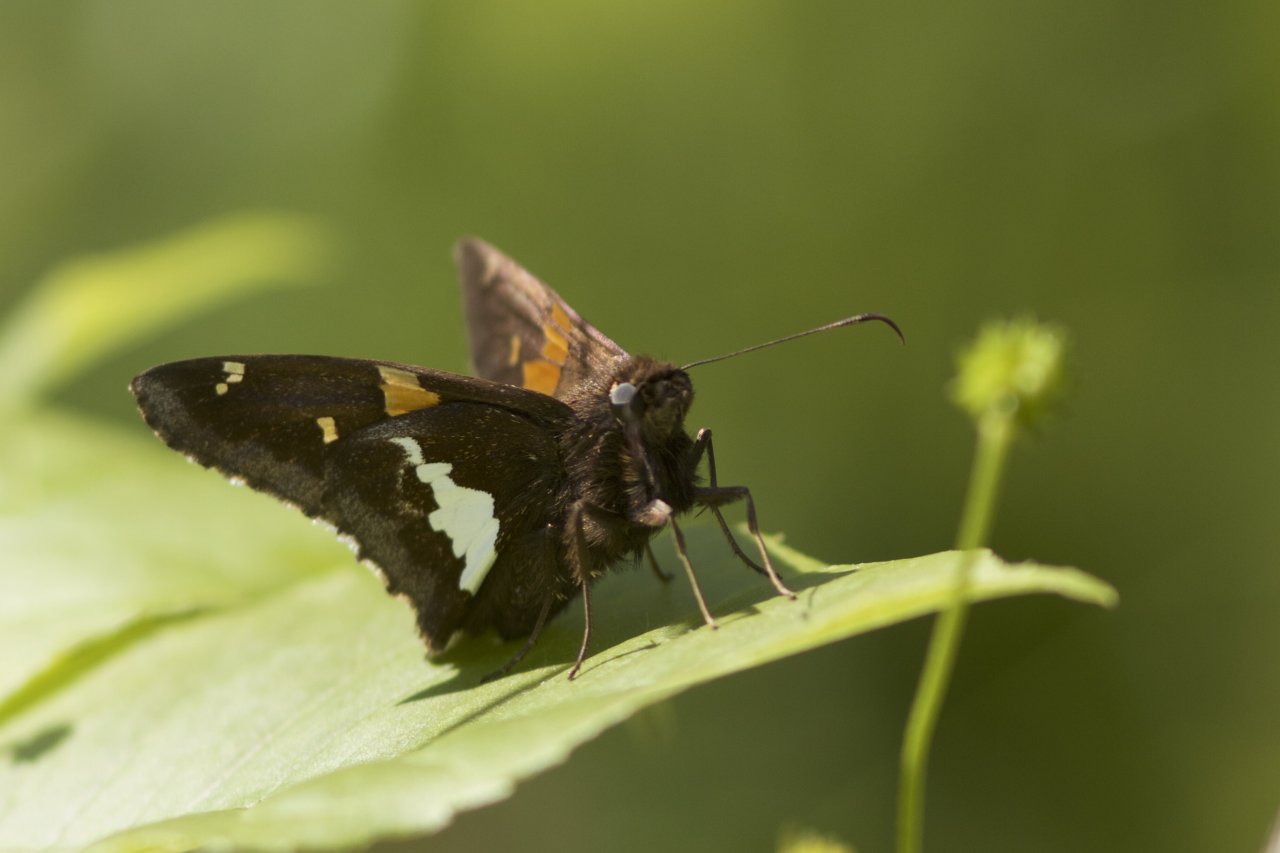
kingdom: Animalia
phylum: Arthropoda
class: Insecta
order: Lepidoptera
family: Hesperiidae
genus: Epargyreus
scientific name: Epargyreus clarus
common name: Silver-spotted Skipper
